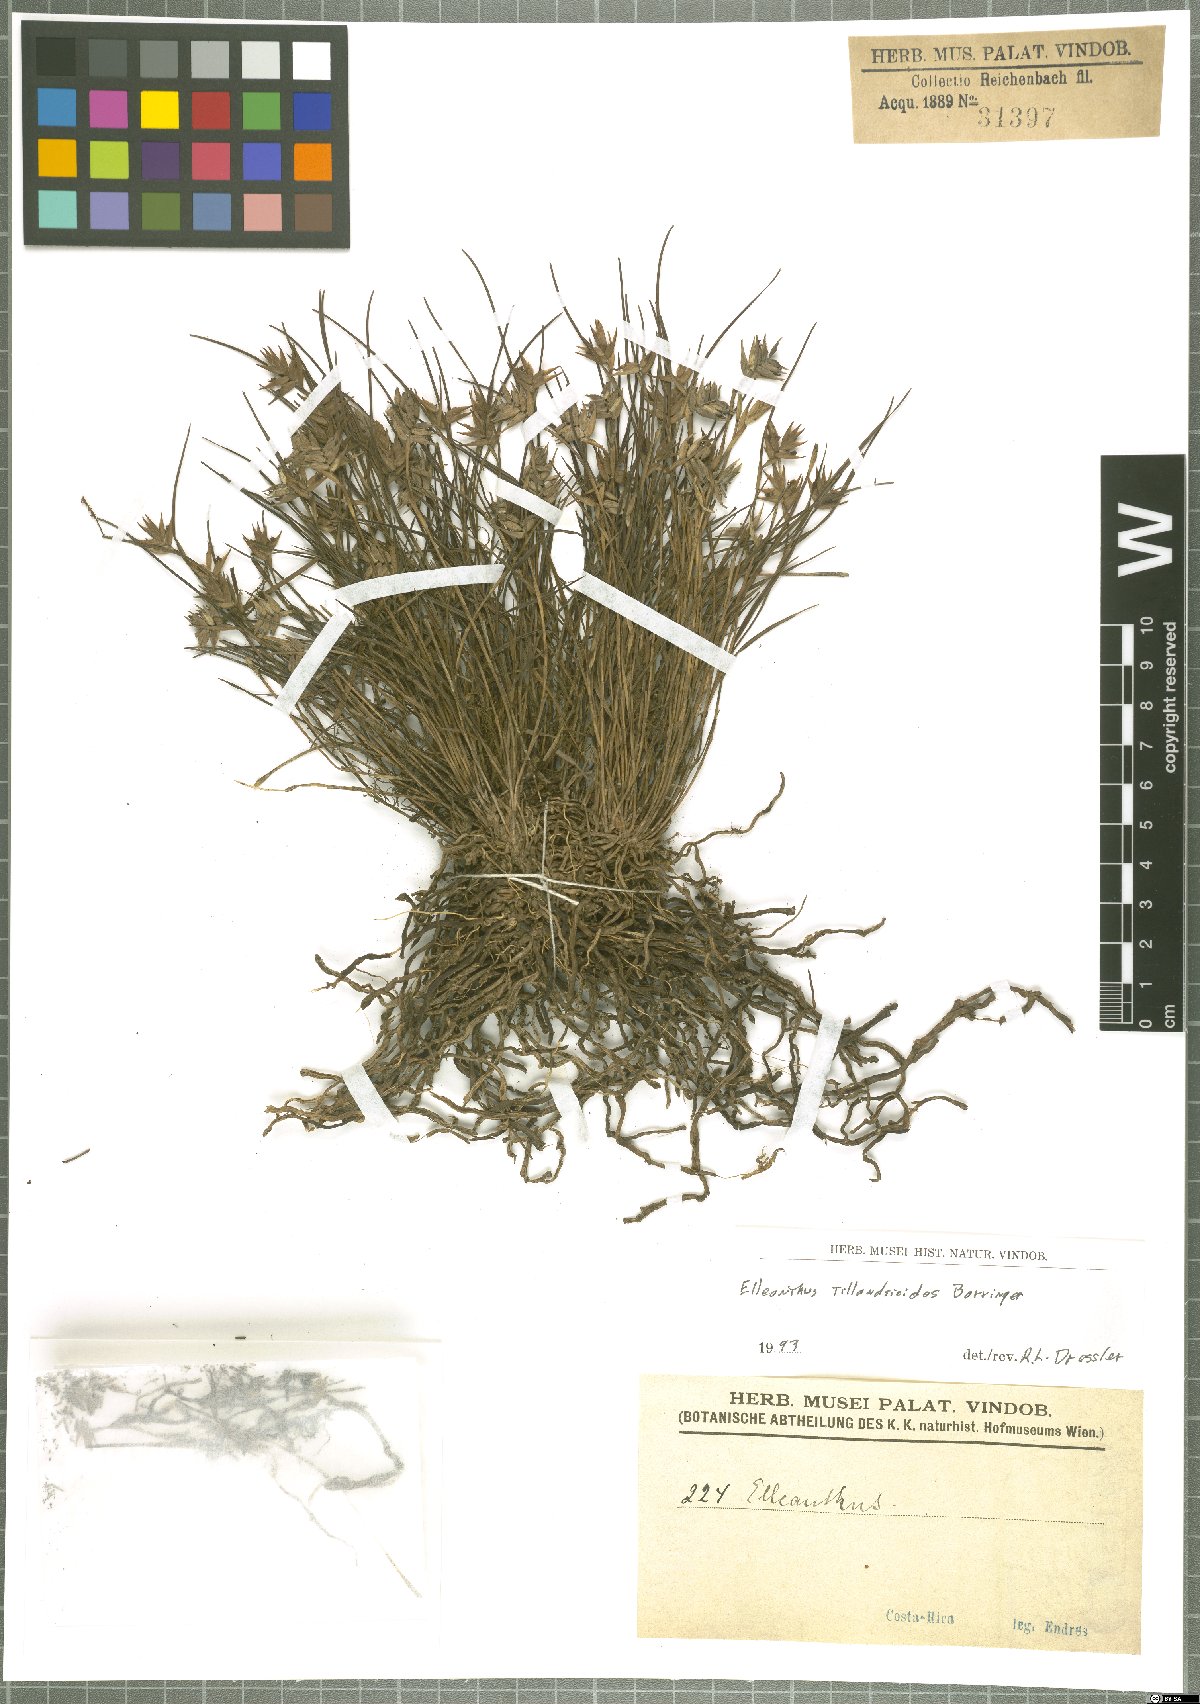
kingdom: Plantae
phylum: Tracheophyta
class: Liliopsida
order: Asparagales
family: Orchidaceae
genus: Elleanthus
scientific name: Elleanthus tillandsioides
